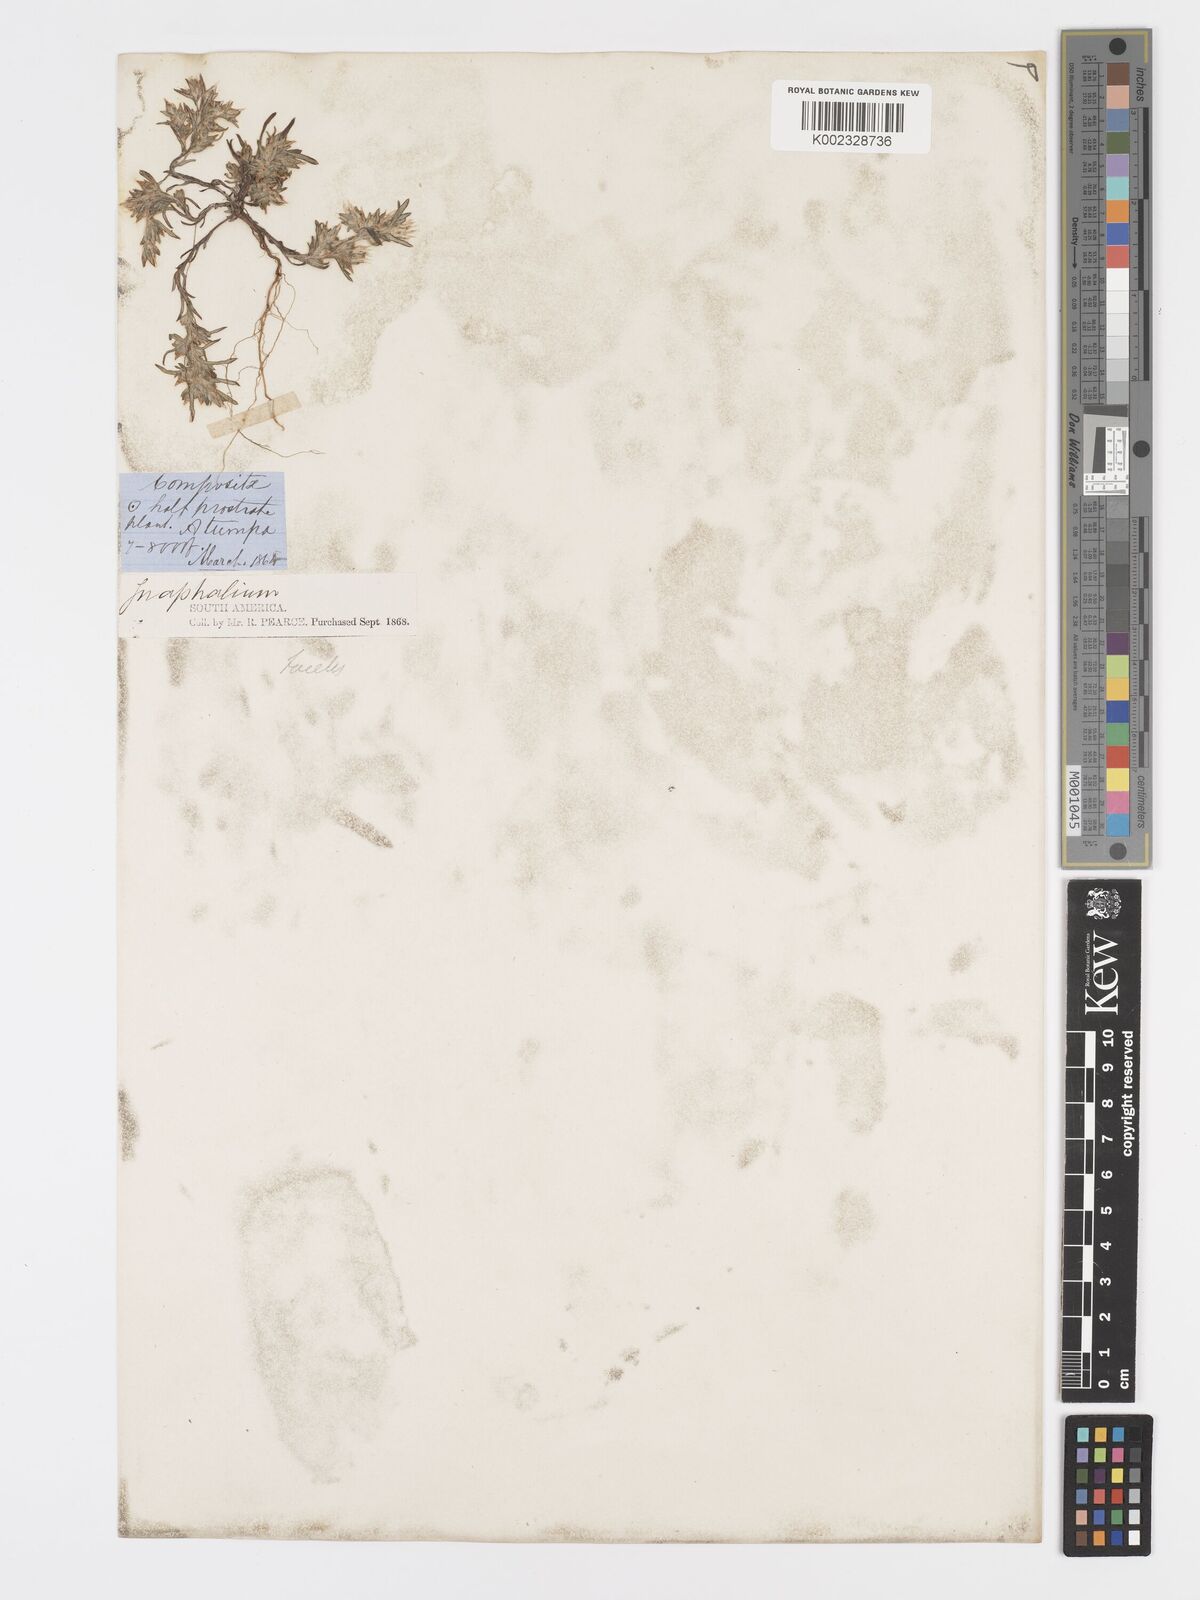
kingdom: Plantae
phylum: Tracheophyta
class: Magnoliopsida
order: Asterales
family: Asteraceae
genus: Facelis
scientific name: Facelis plumosa
